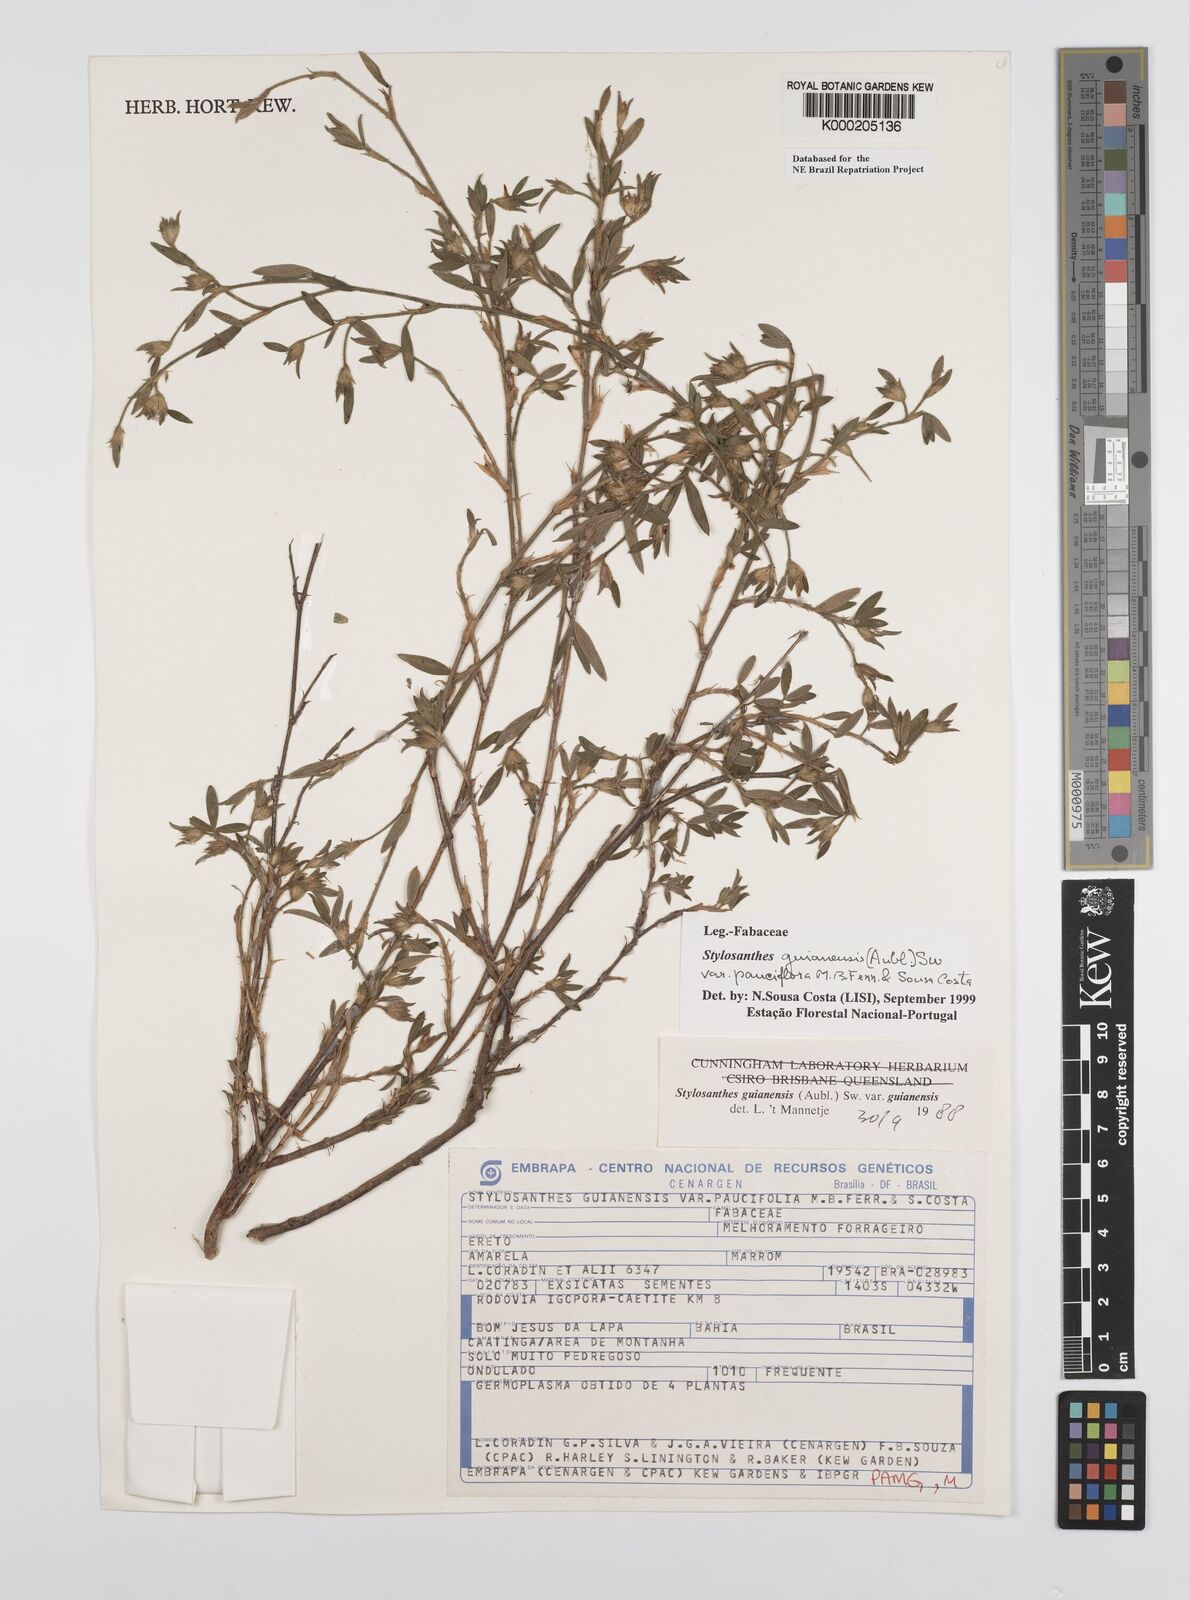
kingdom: Plantae
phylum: Tracheophyta
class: Magnoliopsida
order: Fabales
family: Fabaceae
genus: Stylosanthes
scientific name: Stylosanthes guianensis
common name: Pencil flower
